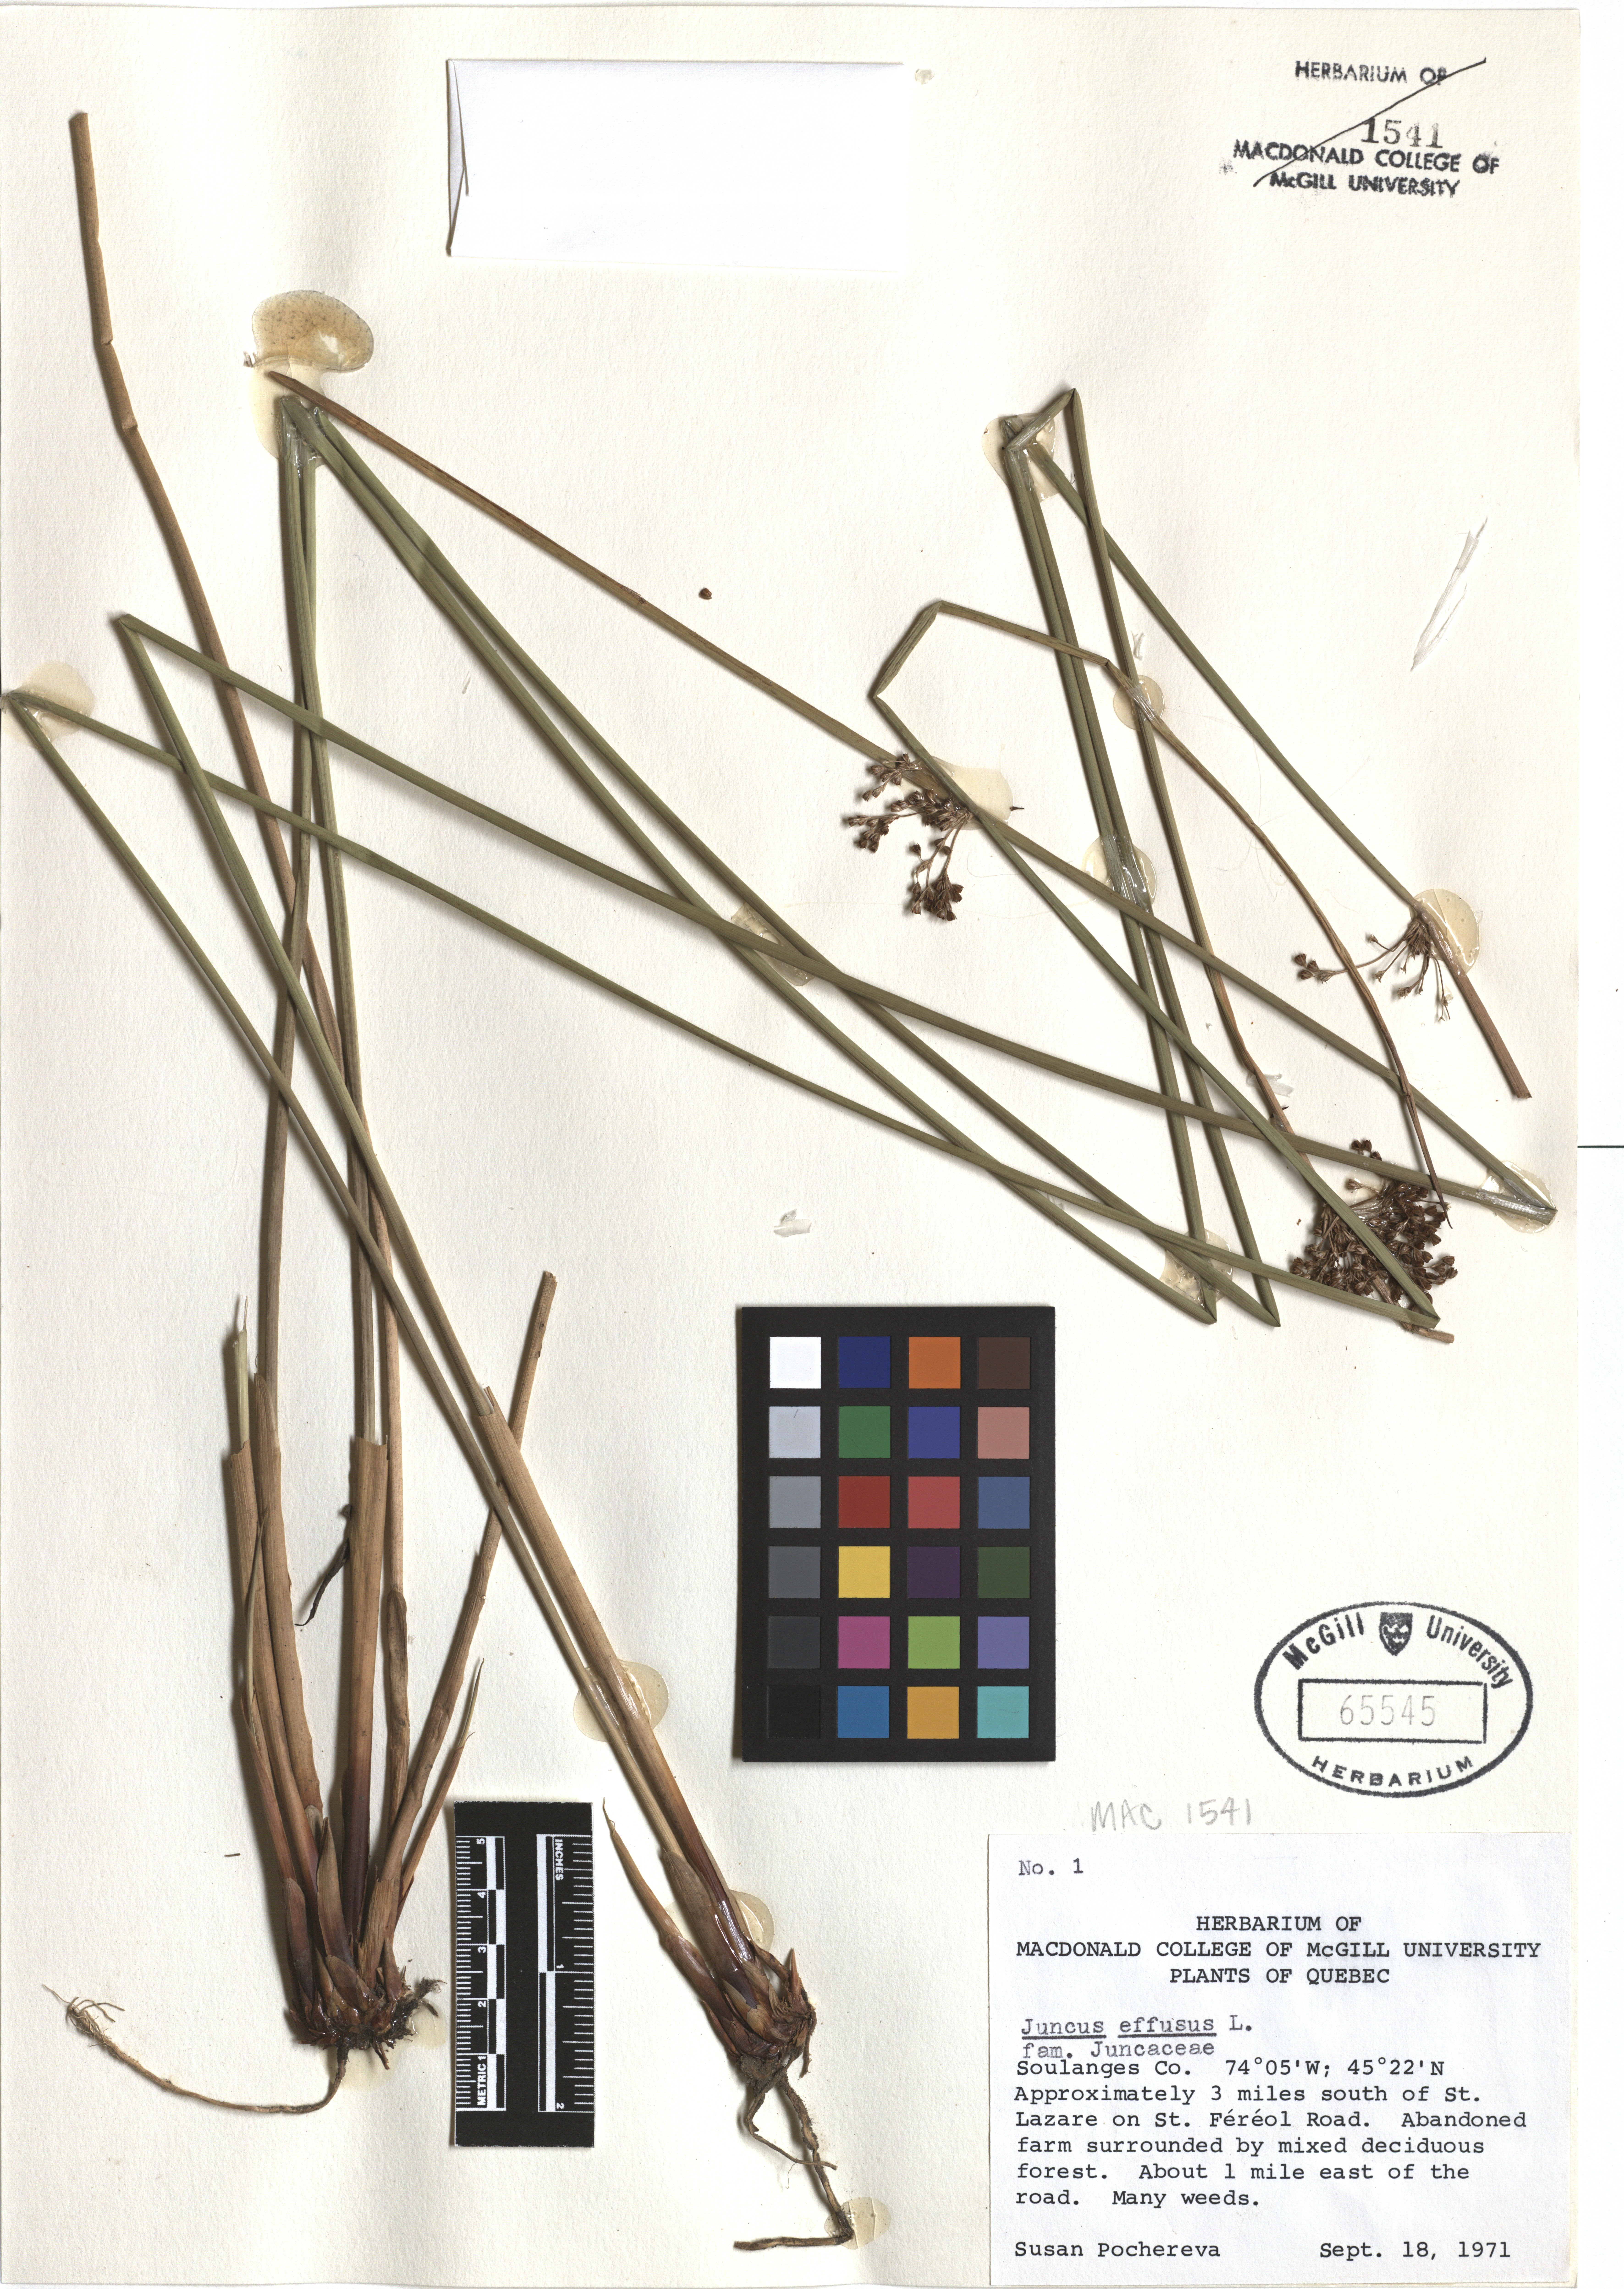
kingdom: Plantae
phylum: Tracheophyta
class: Liliopsida
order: Poales
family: Juncaceae
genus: Juncus
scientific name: Juncus effusus
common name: Soft rush
